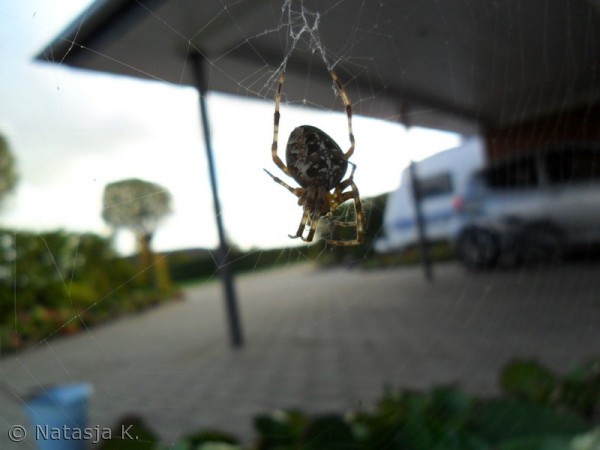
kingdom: Animalia
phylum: Arthropoda
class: Arachnida
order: Araneae
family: Araneidae
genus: Araneus
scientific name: Araneus diadematus
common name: Korsedderkop
